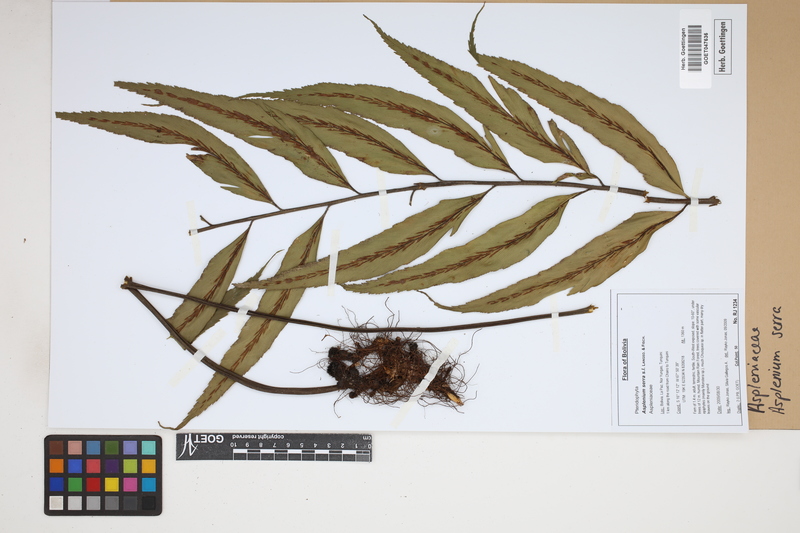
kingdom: Plantae
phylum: Tracheophyta
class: Polypodiopsida
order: Polypodiales
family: Aspleniaceae
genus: Asplenium
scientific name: Asplenium serra
